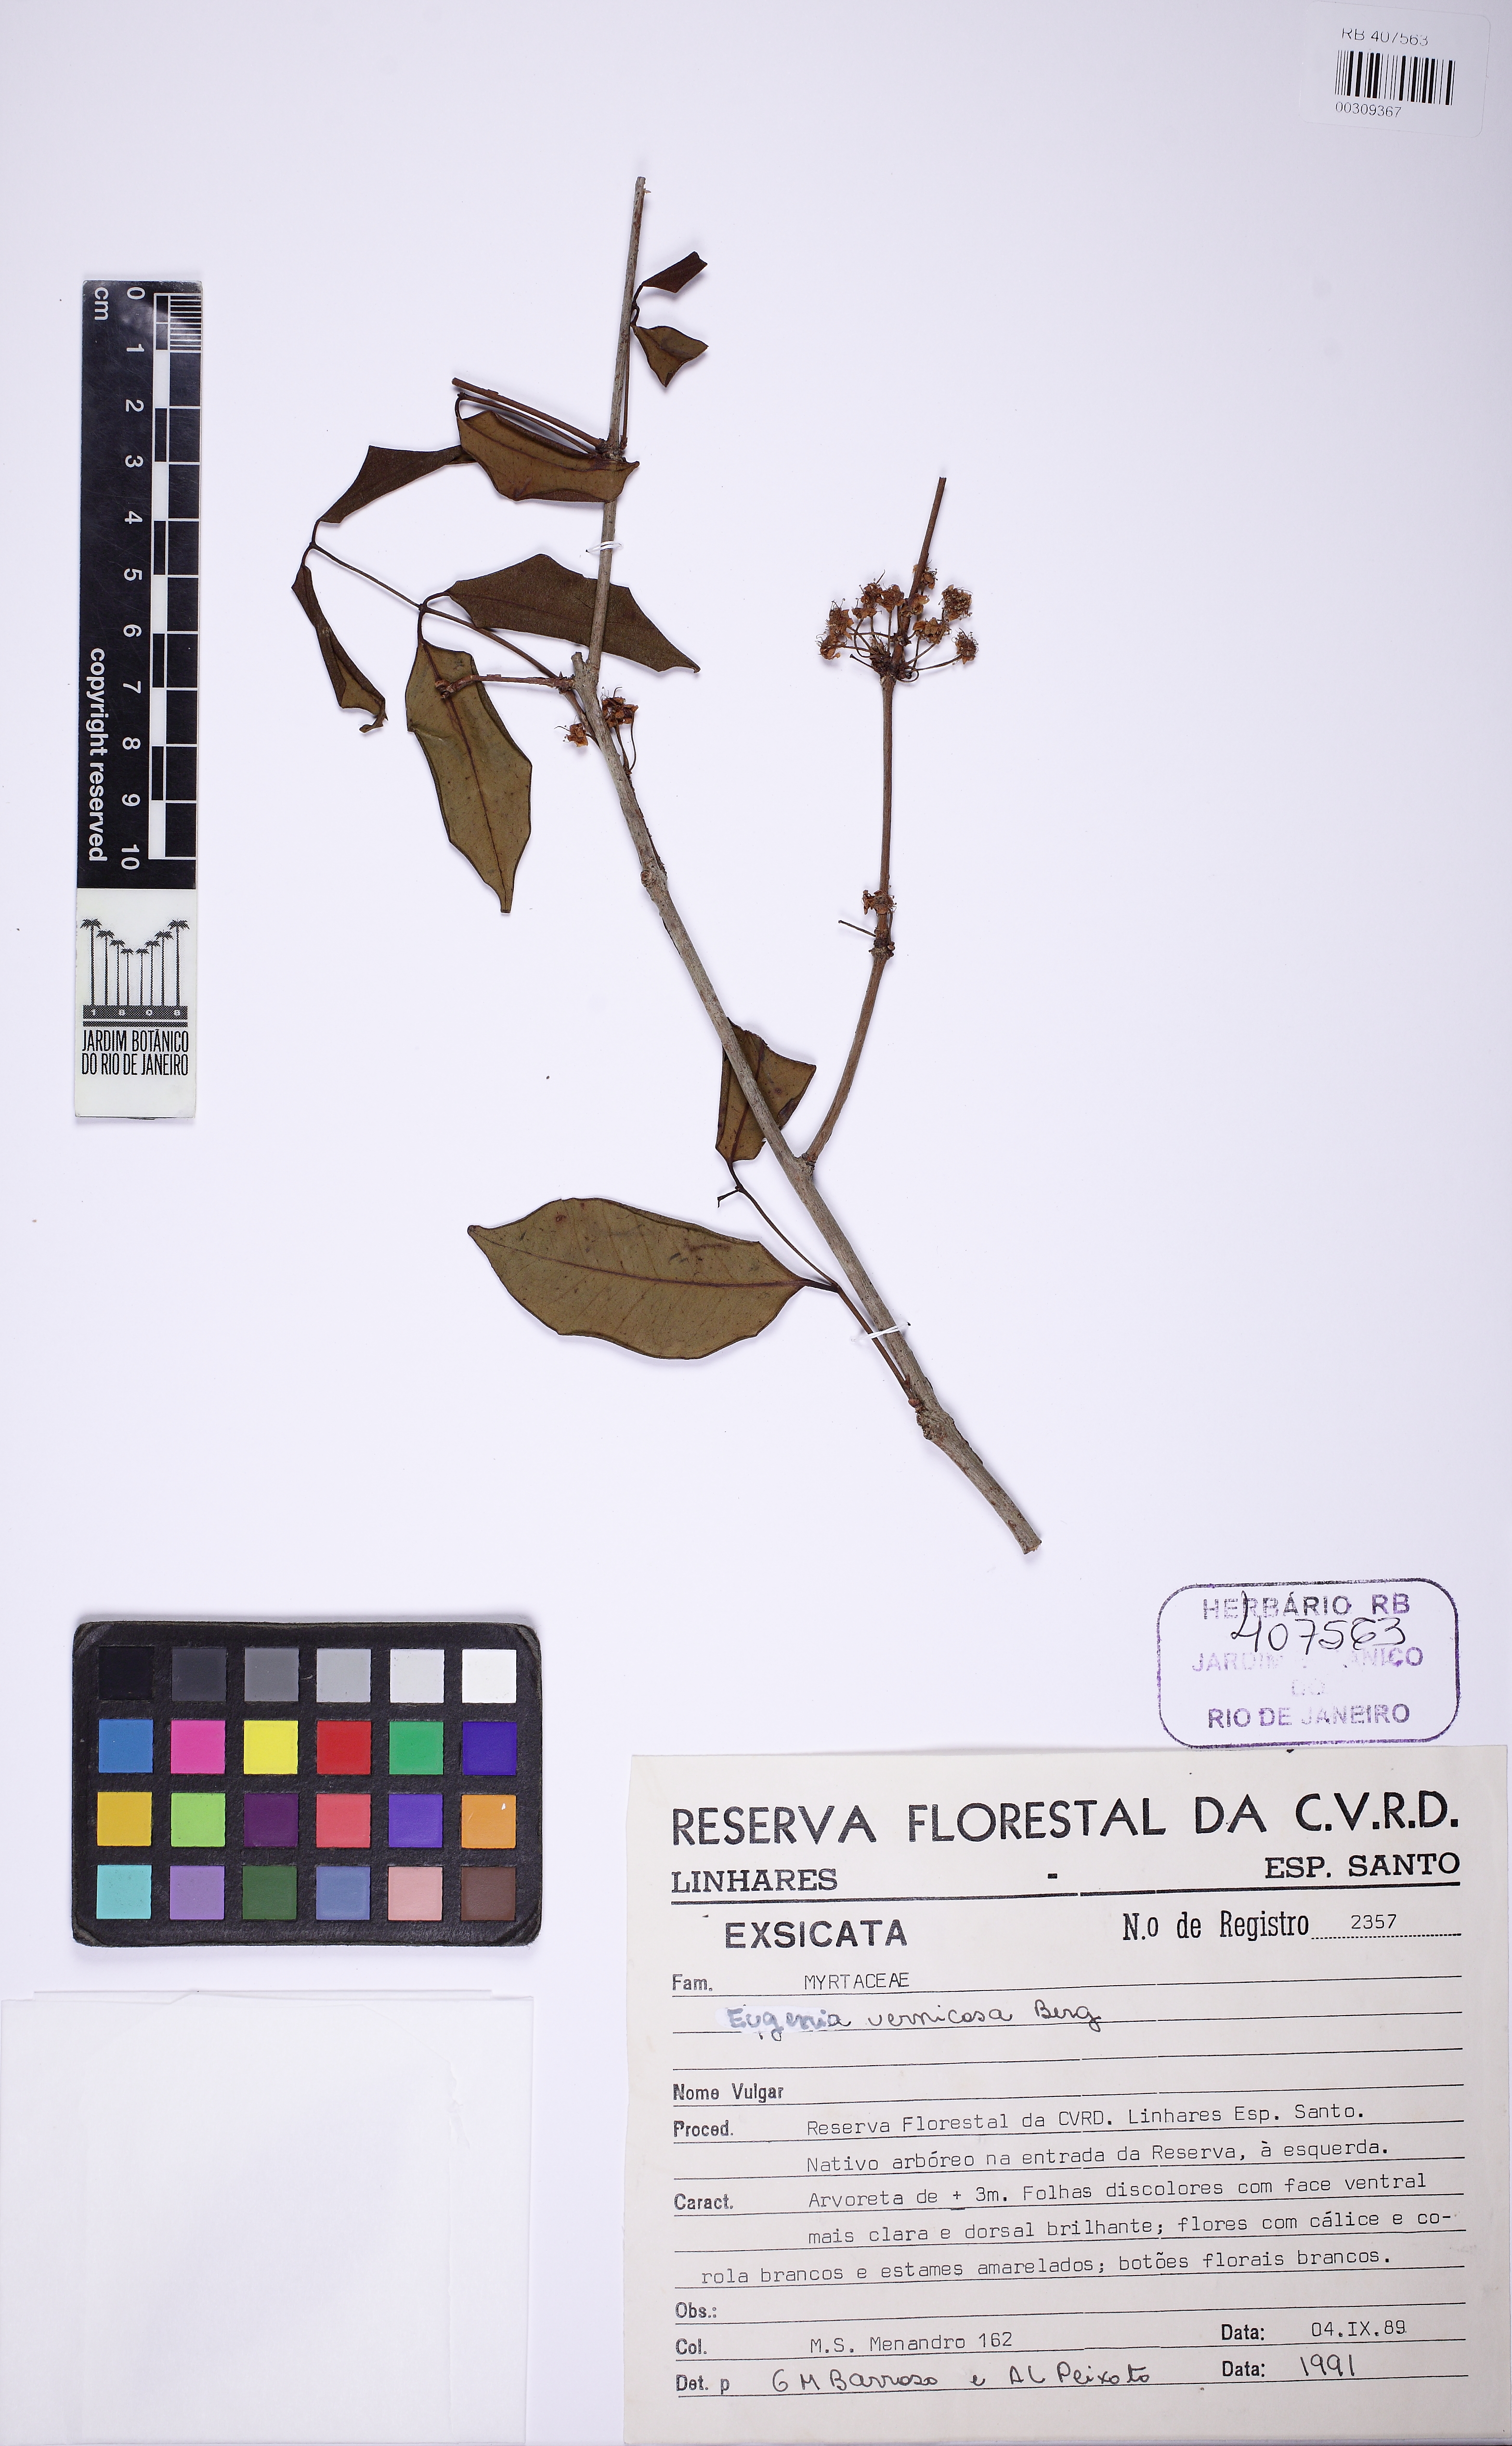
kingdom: Plantae
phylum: Tracheophyta
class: Magnoliopsida
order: Myrtales
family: Myrtaceae
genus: Eugenia
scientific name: Eugenia platyphylla
